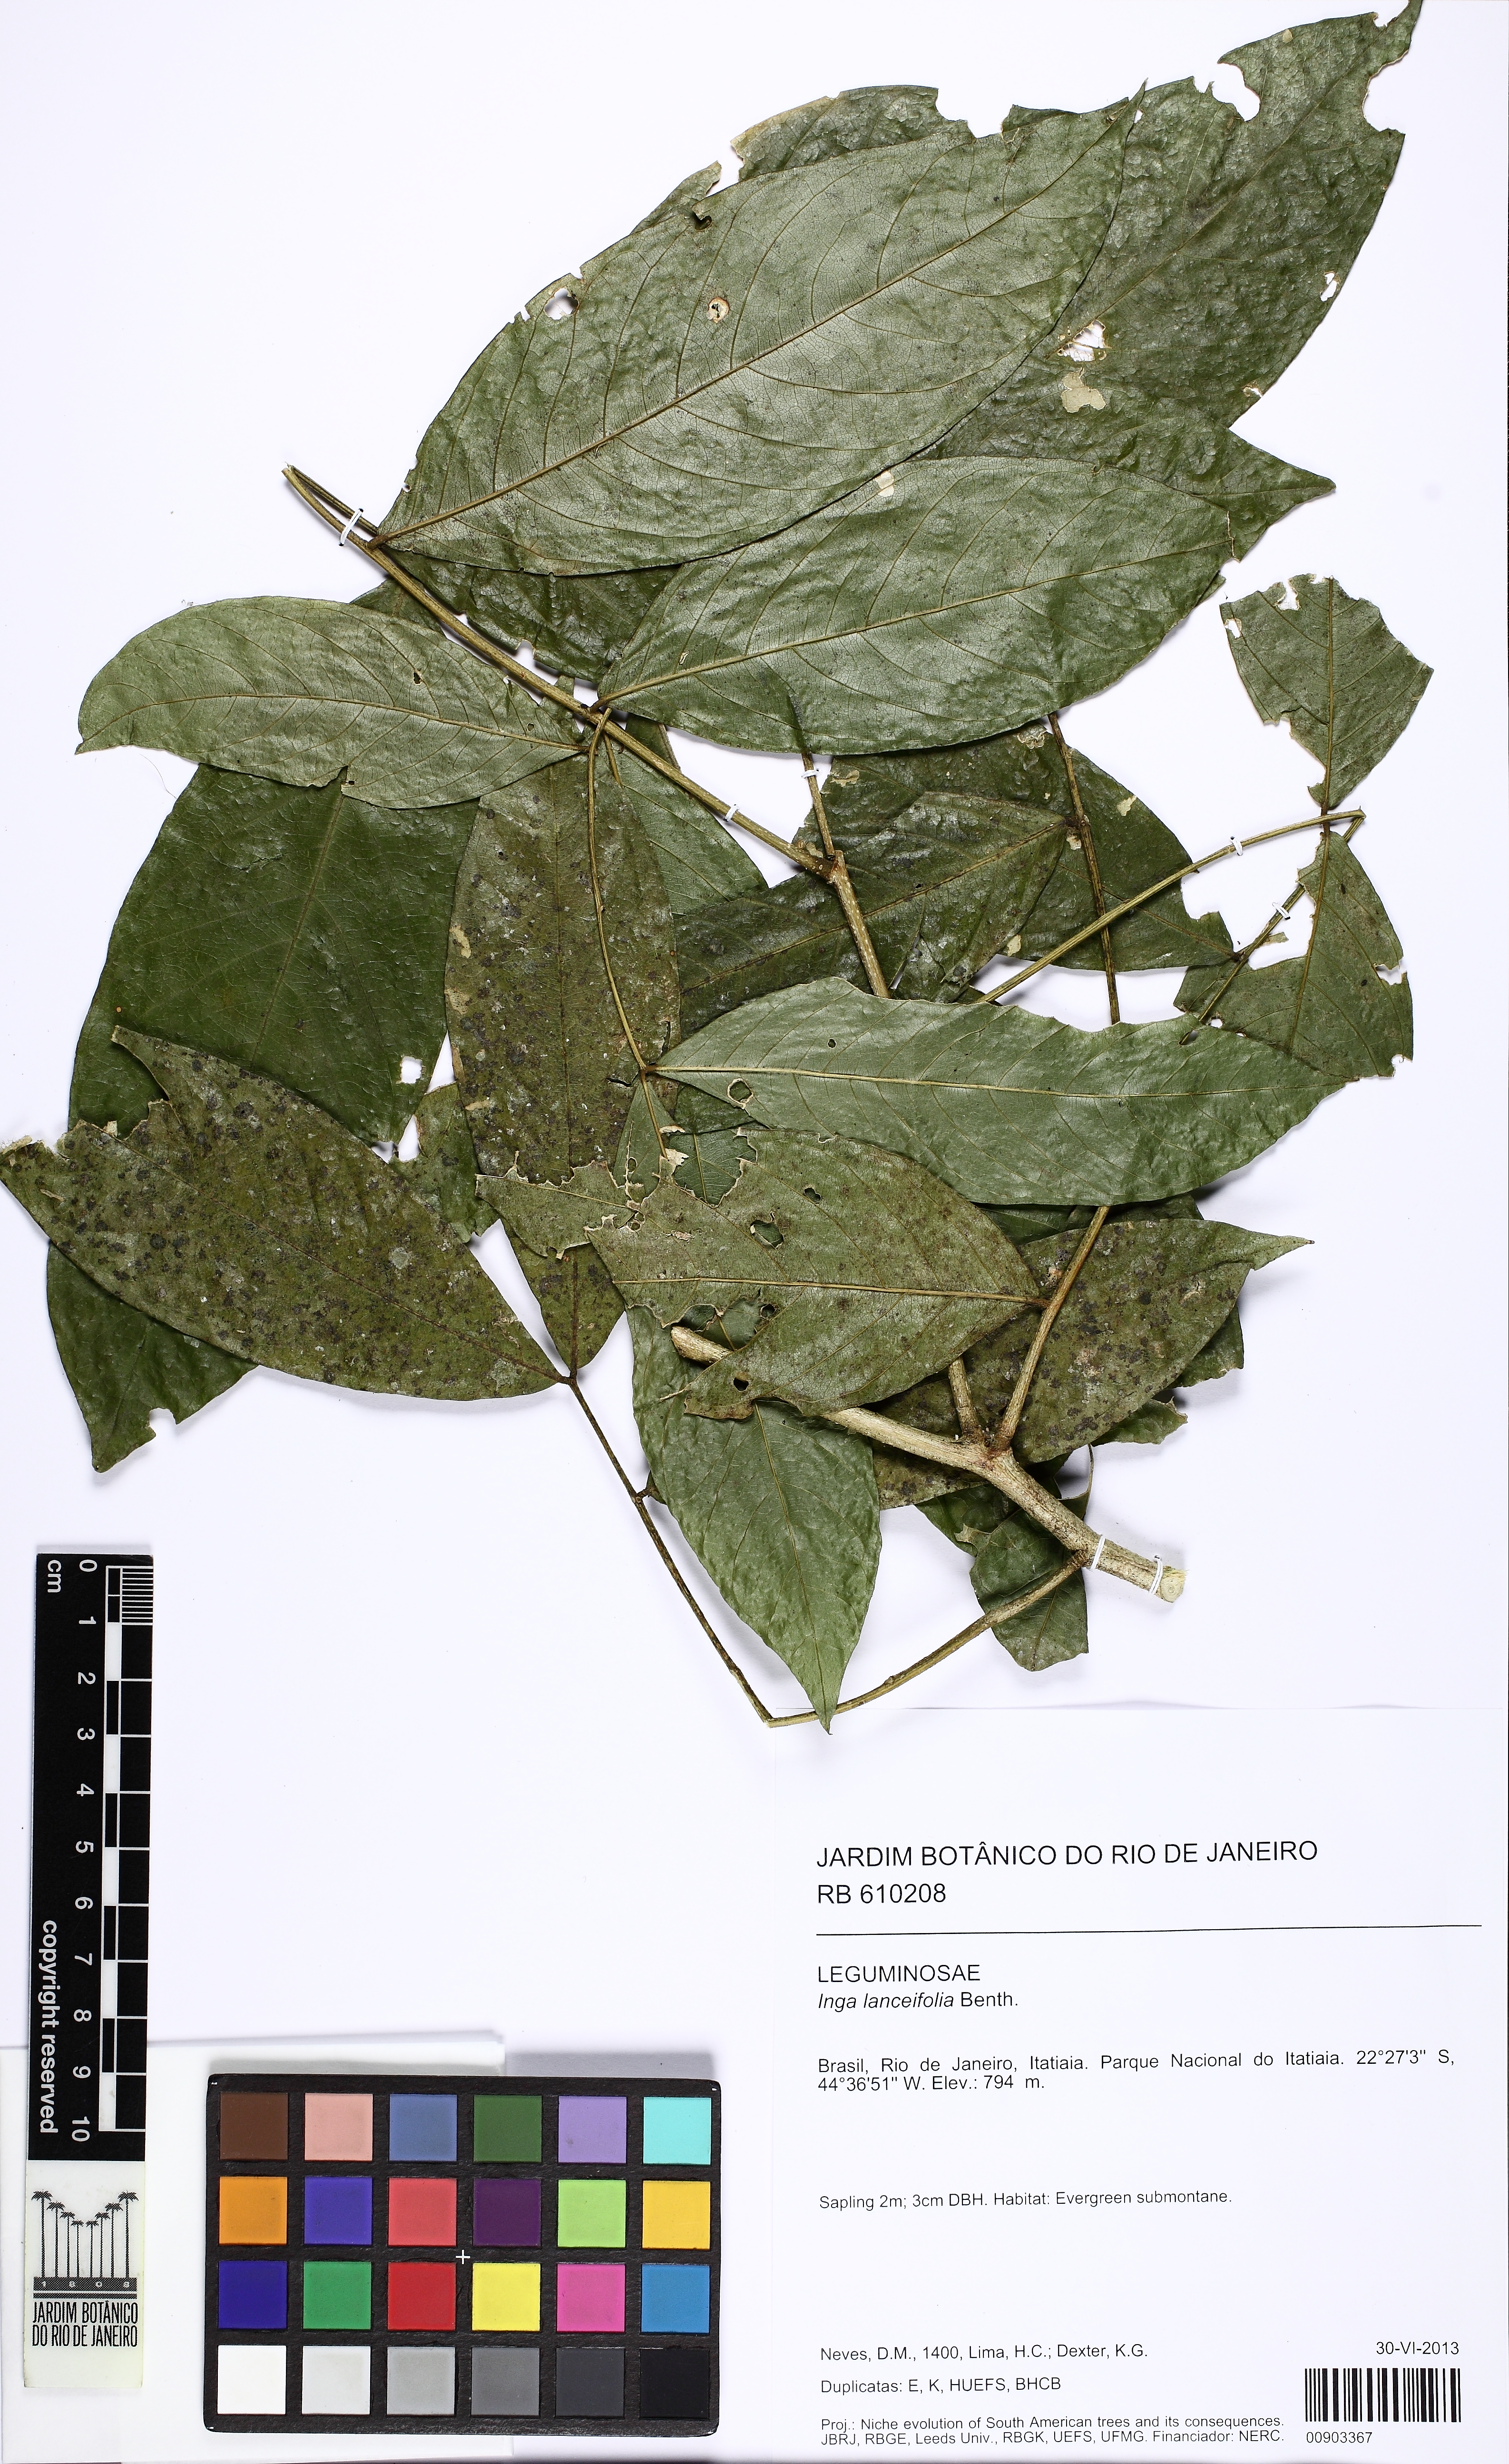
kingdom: Plantae
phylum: Tracheophyta
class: Magnoliopsida
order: Fabales
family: Fabaceae
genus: Inga
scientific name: Inga lanceifolia
